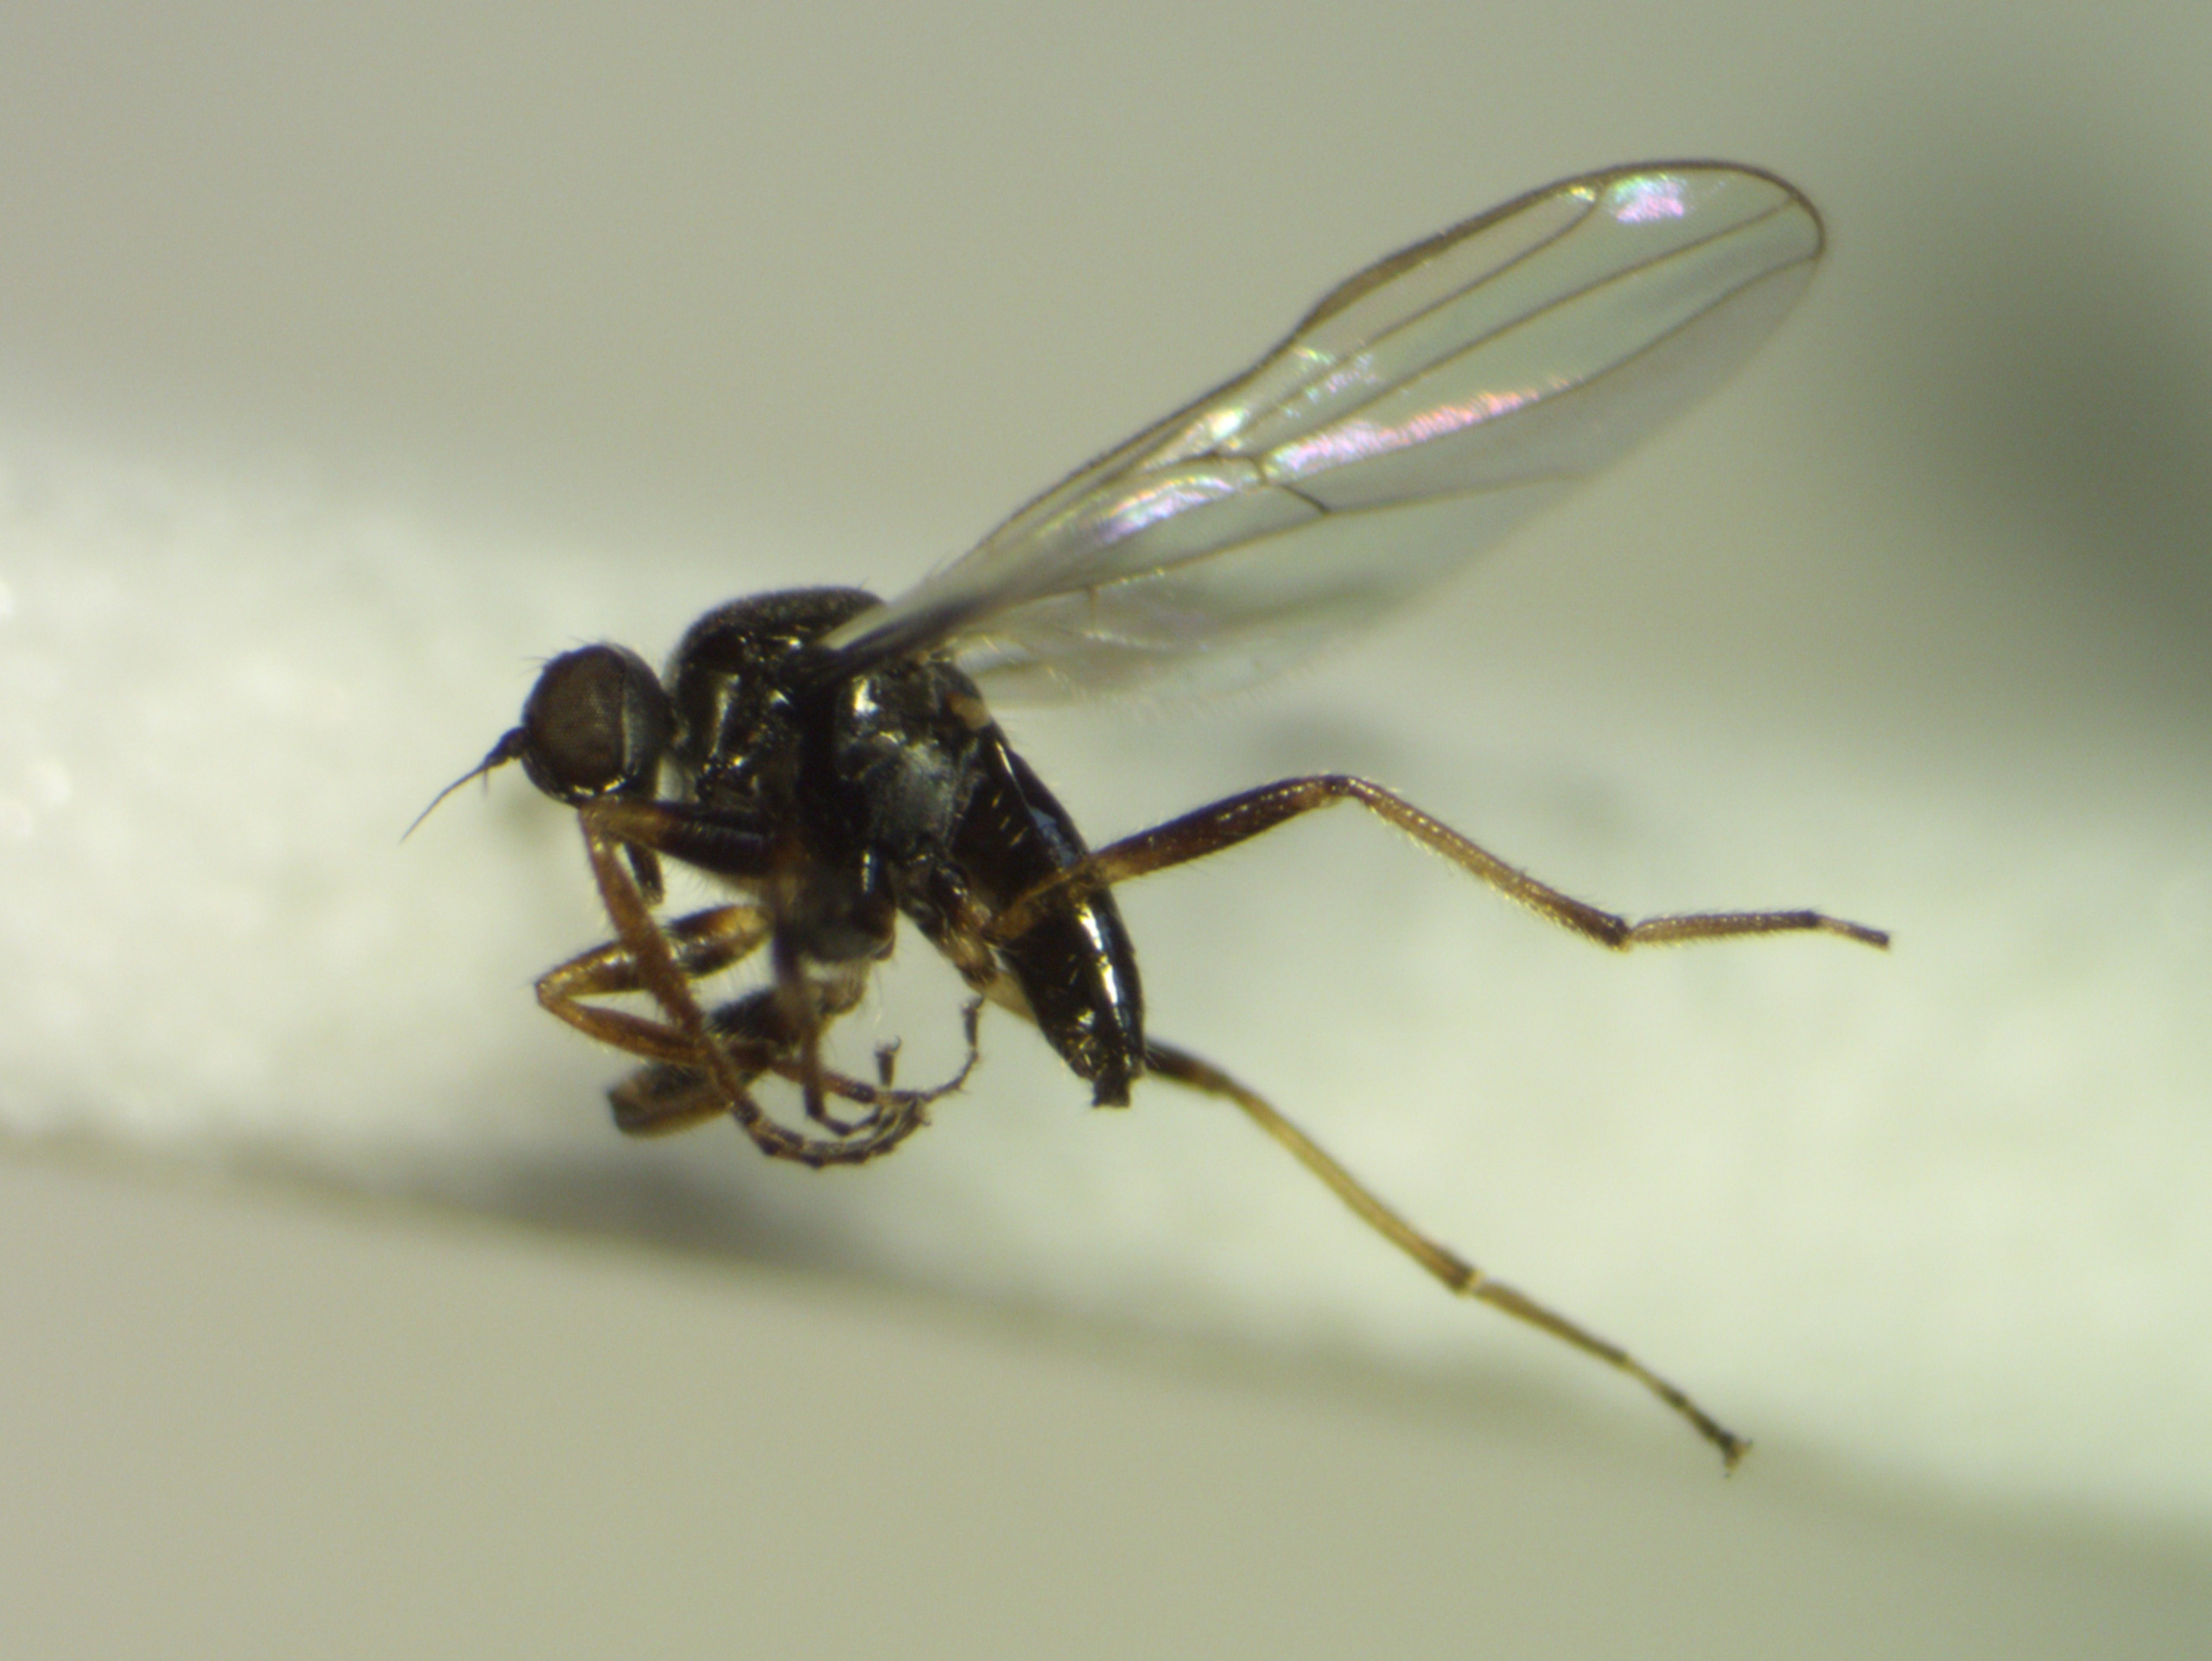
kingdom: Animalia
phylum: Arthropoda
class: Insecta
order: Diptera
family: Hybotidae
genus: Platypalpus
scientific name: Platypalpus notatus
